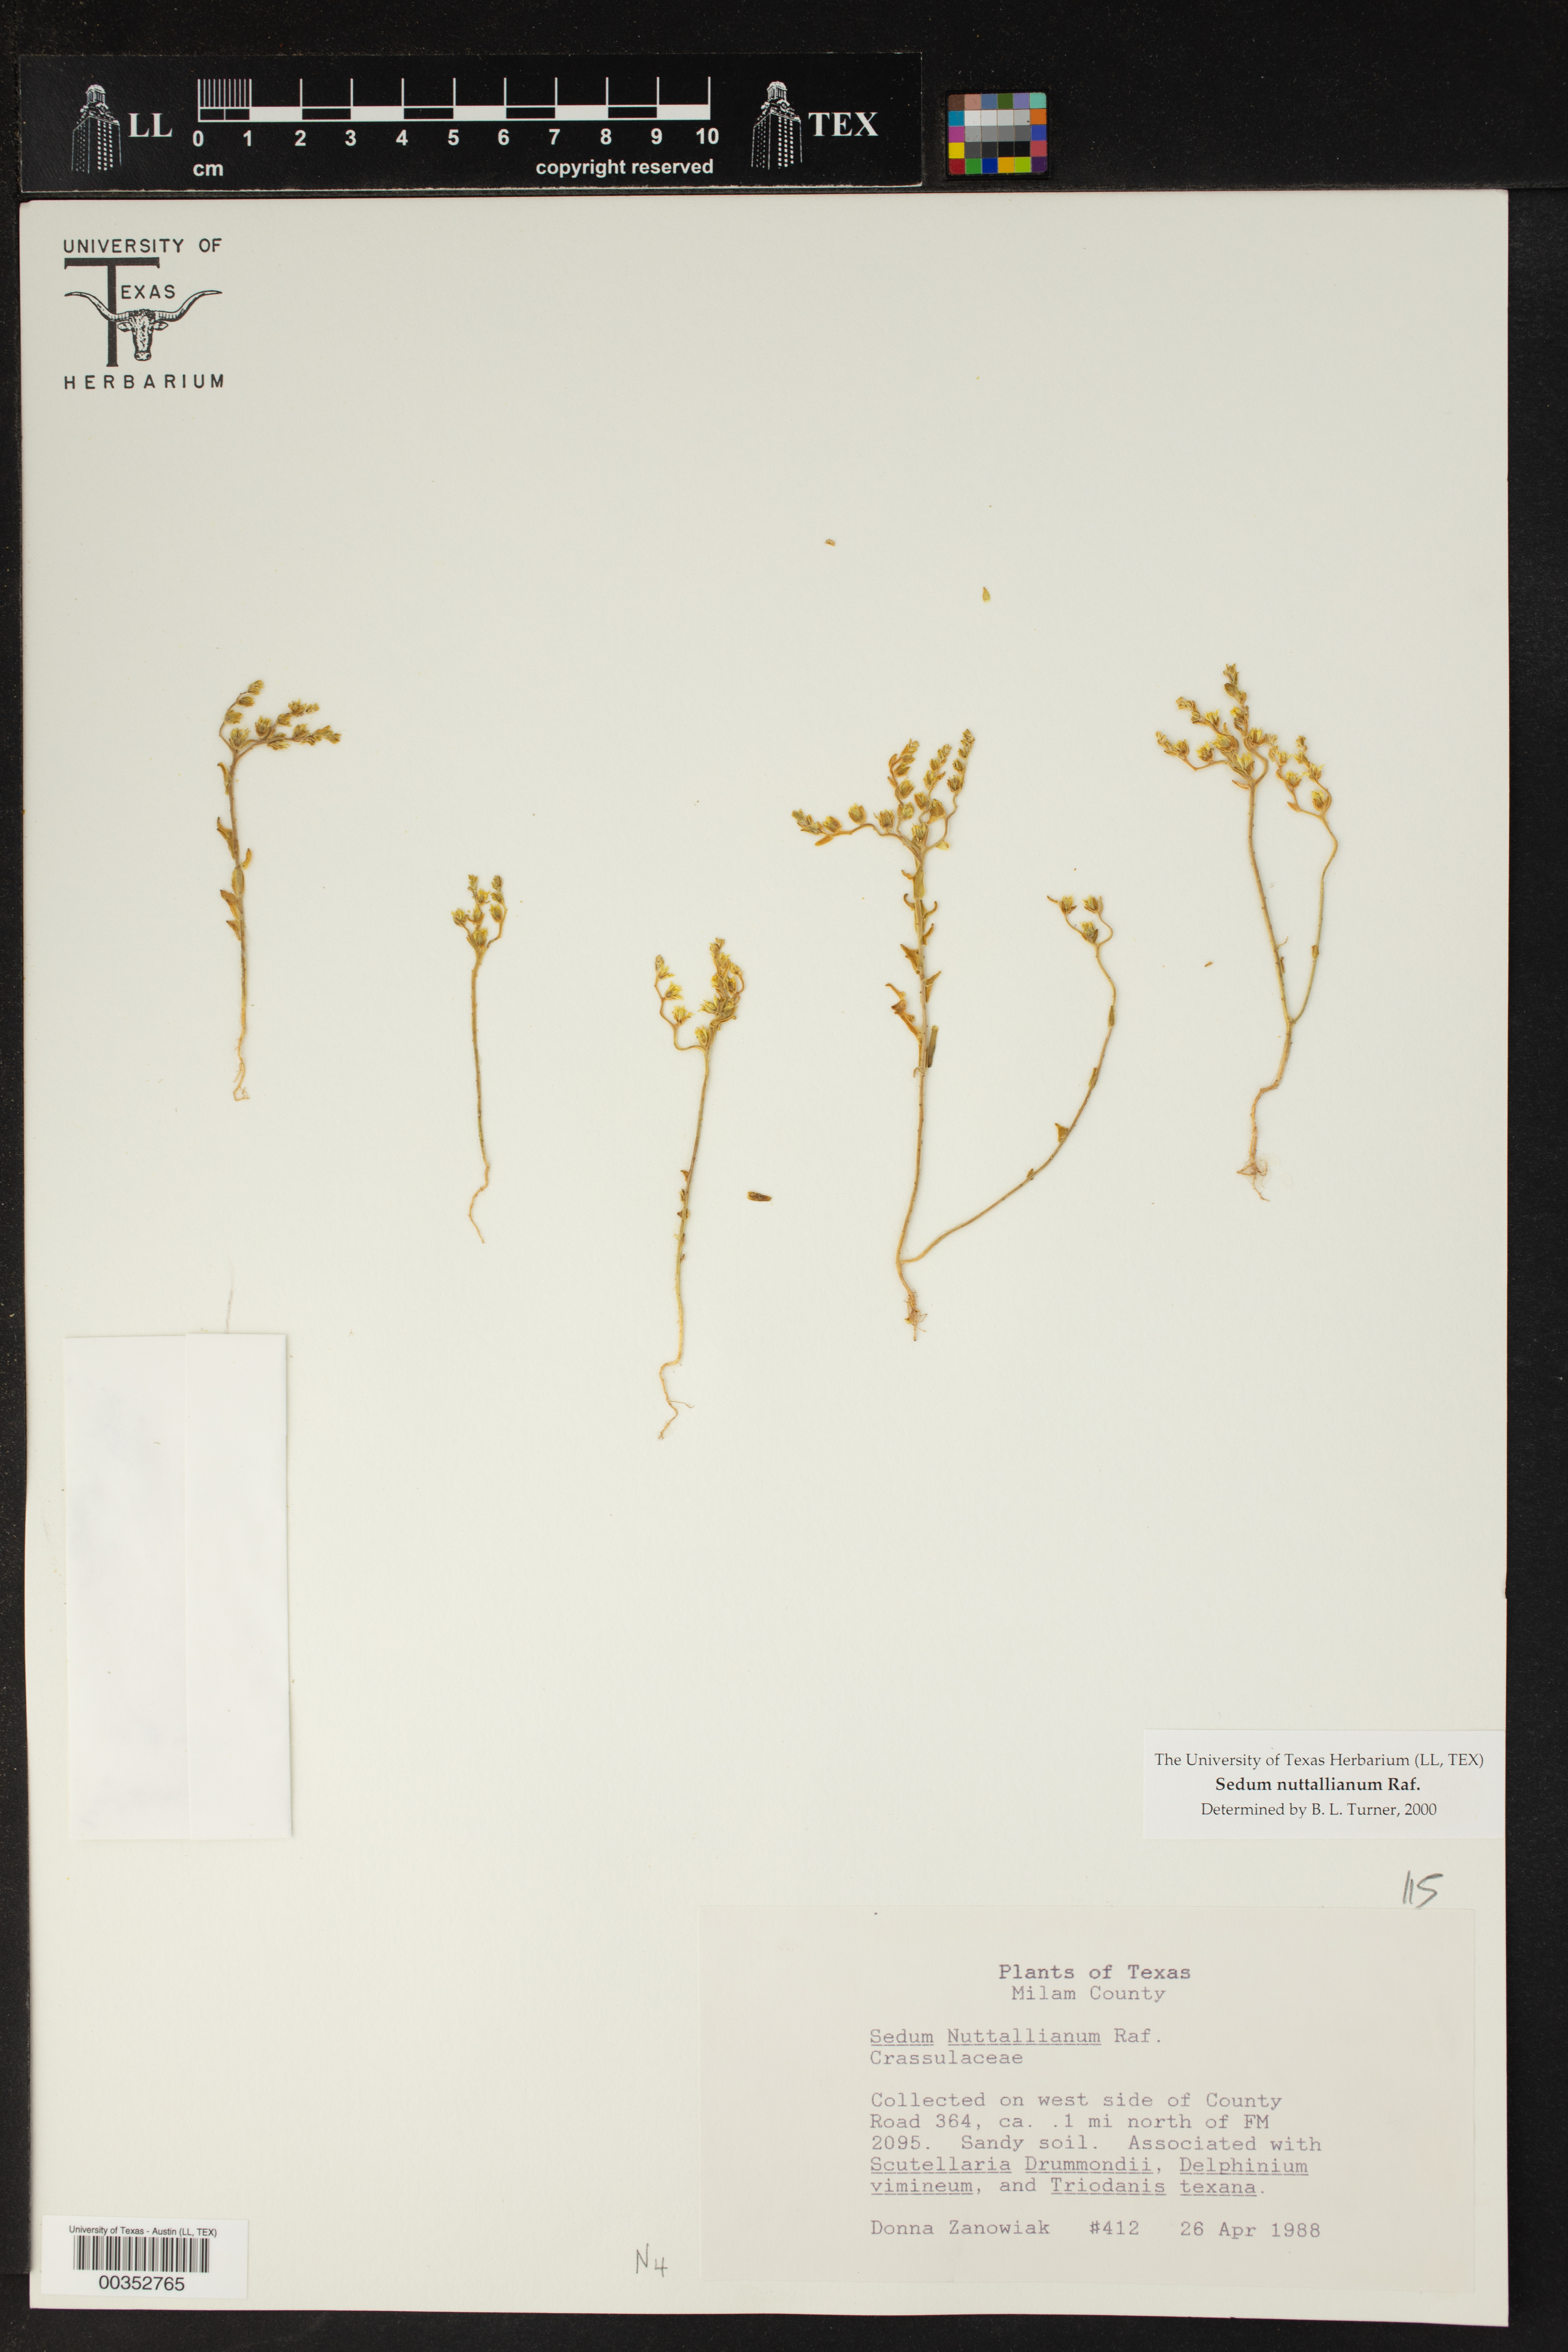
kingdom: Plantae
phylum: Tracheophyta
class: Magnoliopsida
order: Saxifragales
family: Crassulaceae
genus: Sedum
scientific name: Sedum nuttallii
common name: Yellow stonecrop
